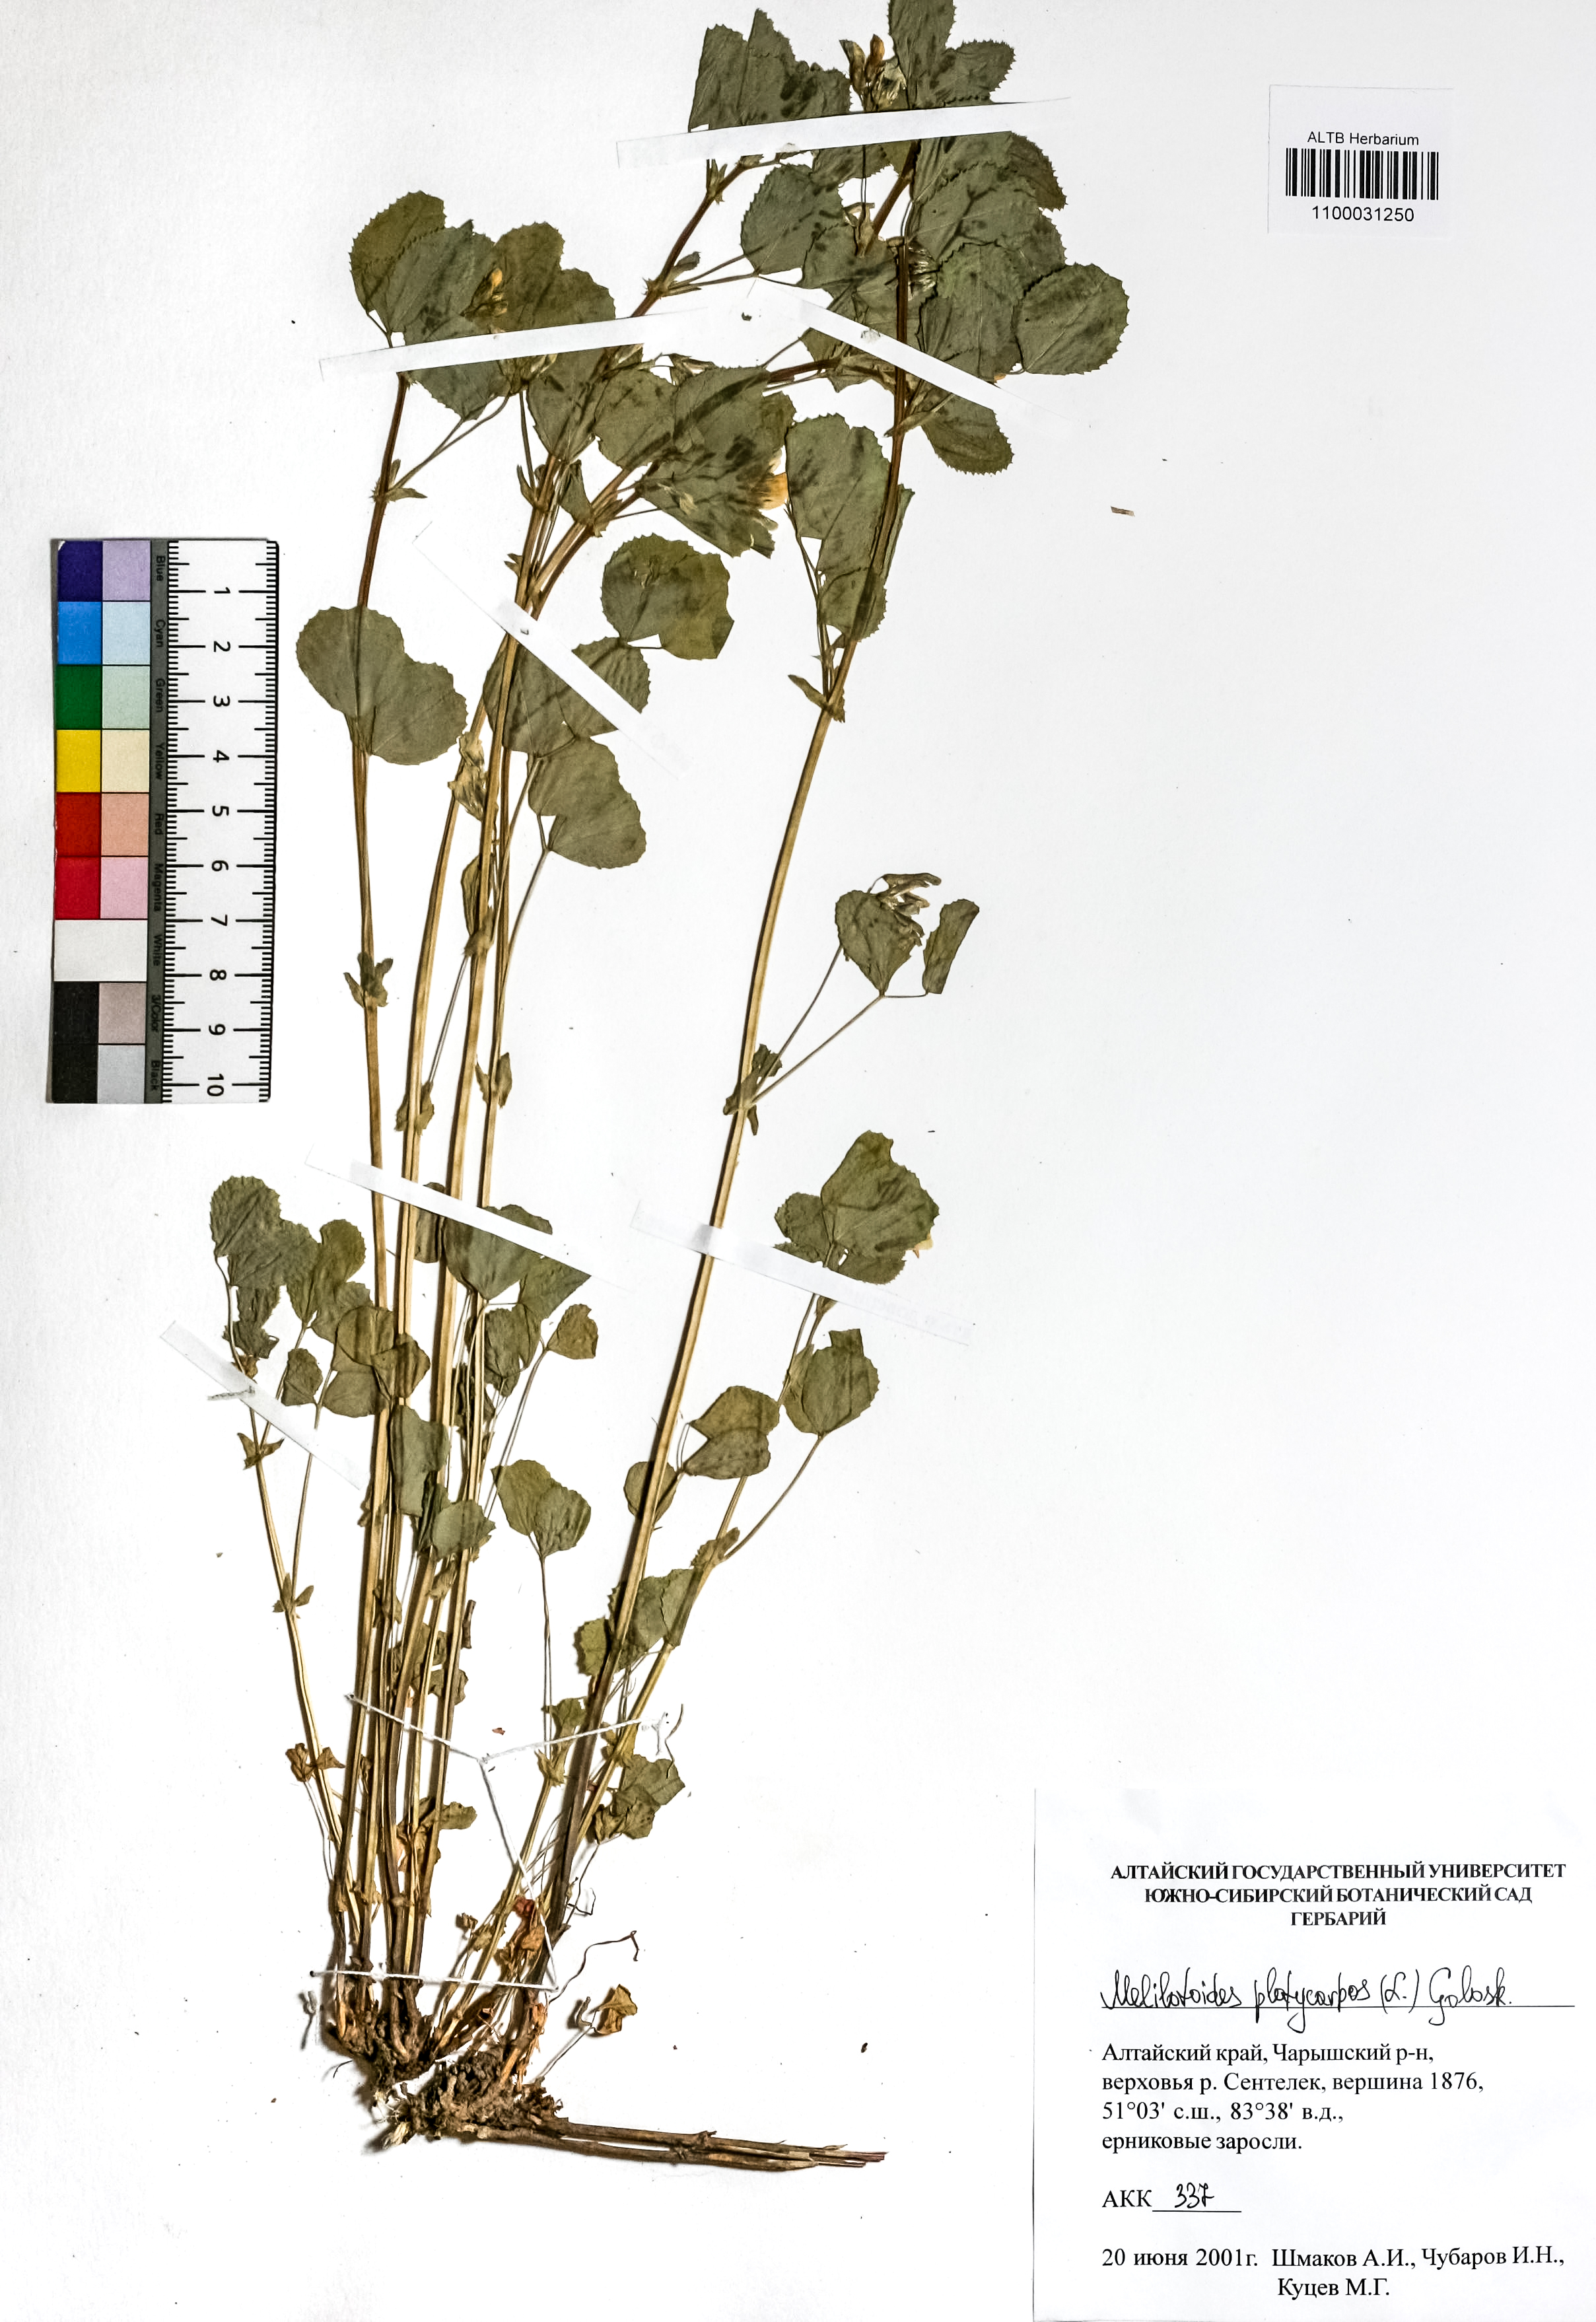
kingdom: Plantae
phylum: Tracheophyta
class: Magnoliopsida
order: Fabales
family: Fabaceae
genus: Medicago
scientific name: Medicago platycarpos
